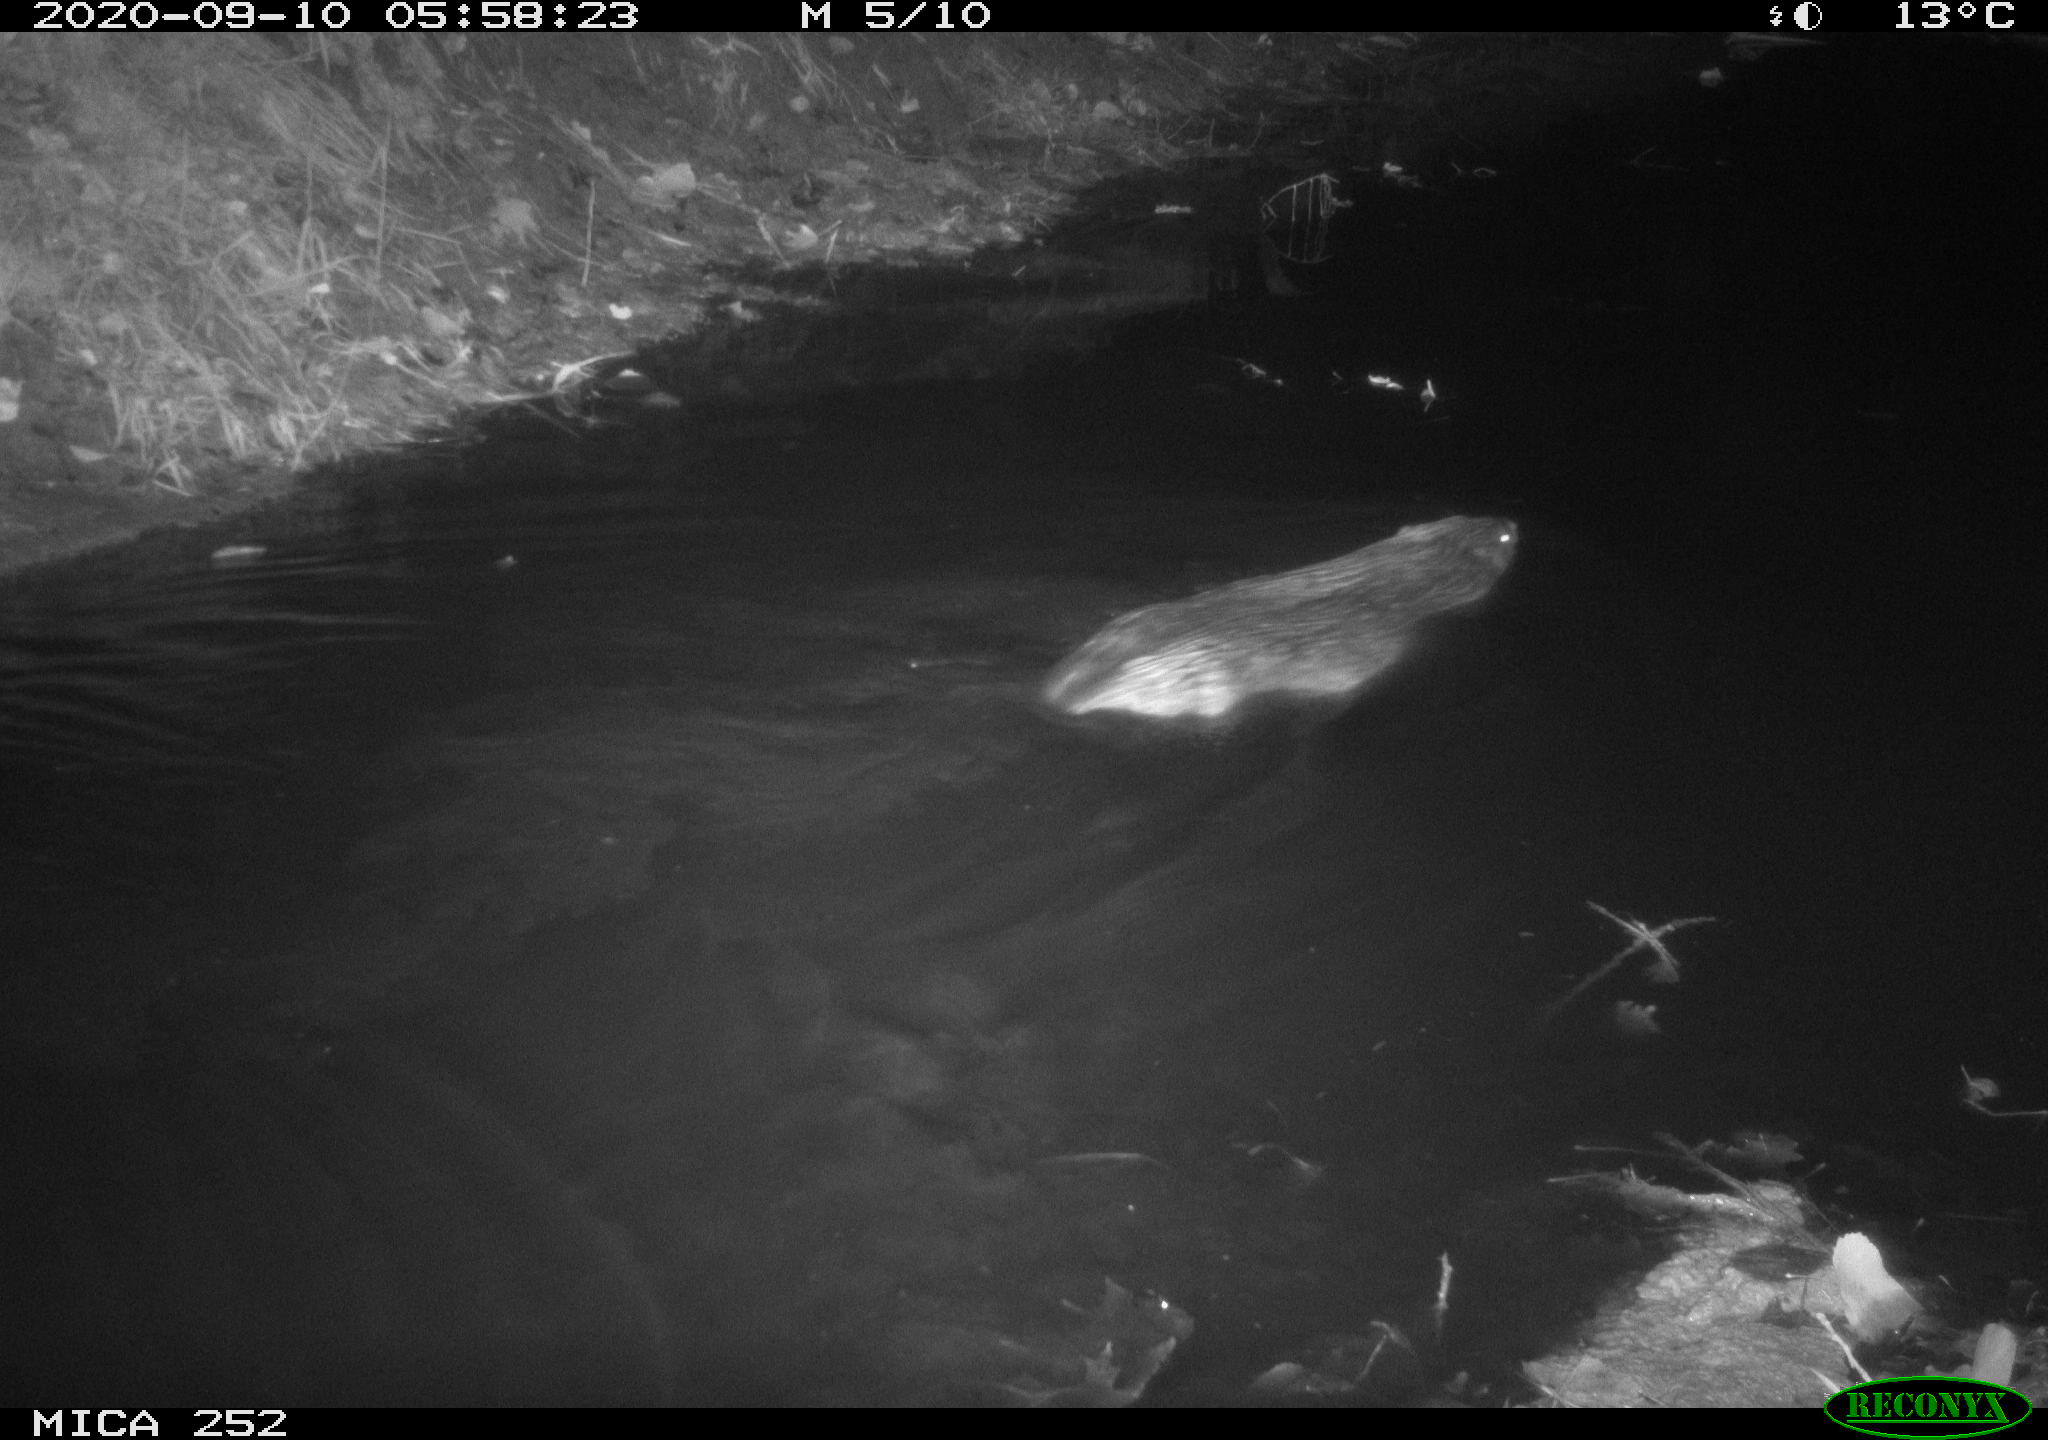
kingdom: Animalia
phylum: Chordata
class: Mammalia
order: Rodentia
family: Castoridae
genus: Castor
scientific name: Castor fiber
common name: Eurasian beaver
